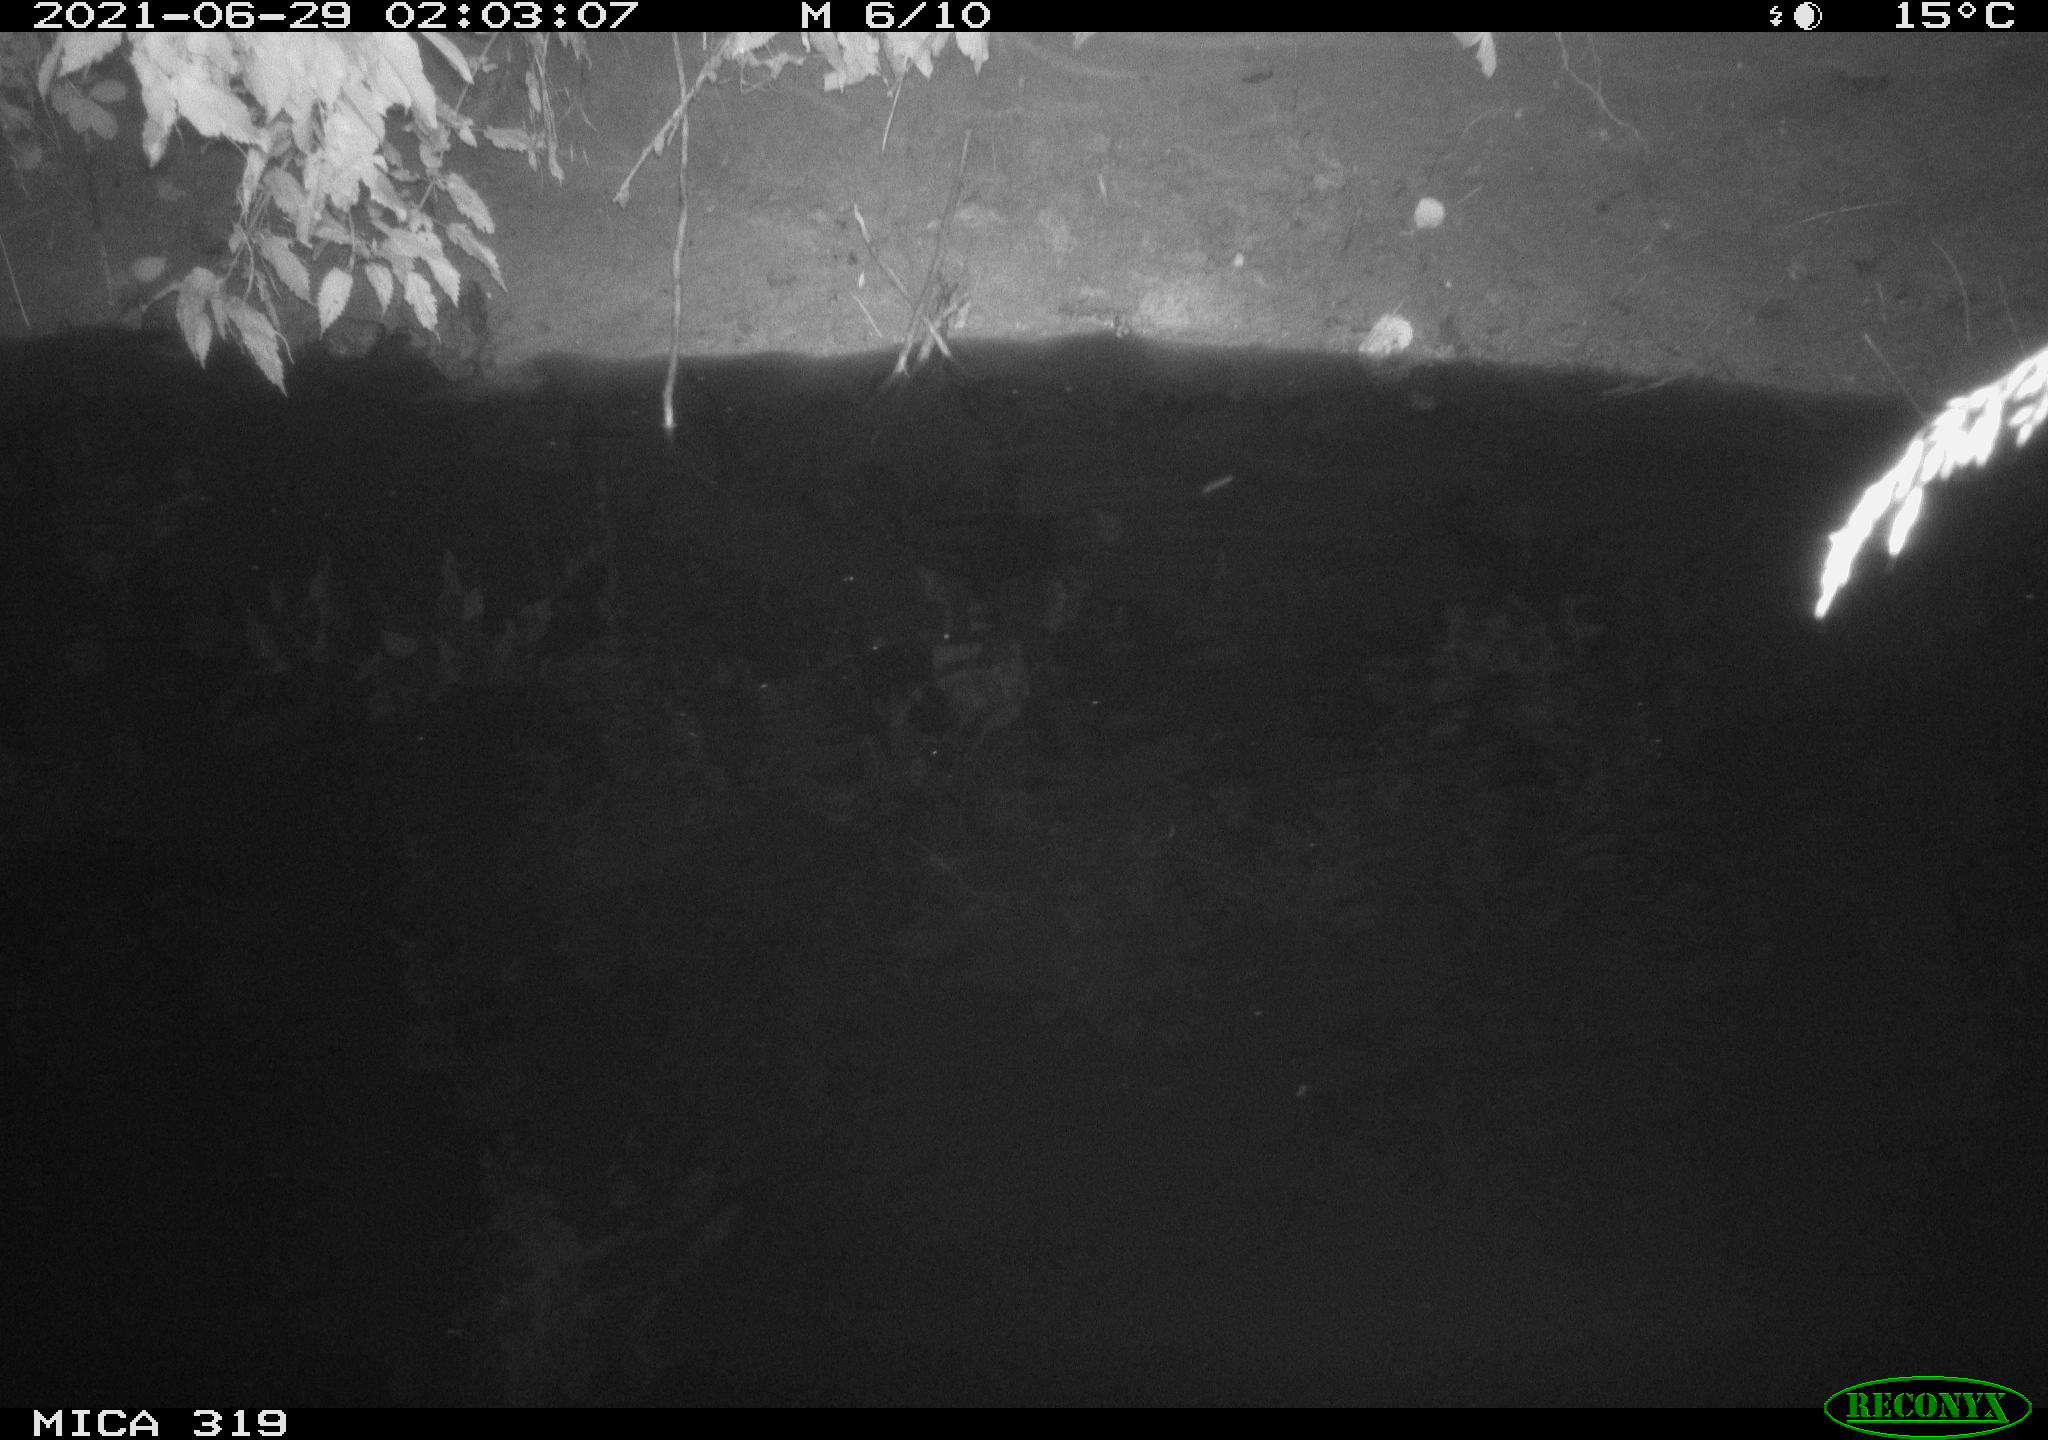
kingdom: Animalia
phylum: Chordata
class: Aves
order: Anseriformes
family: Anatidae
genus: Anas
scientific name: Anas platyrhynchos
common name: Mallard
